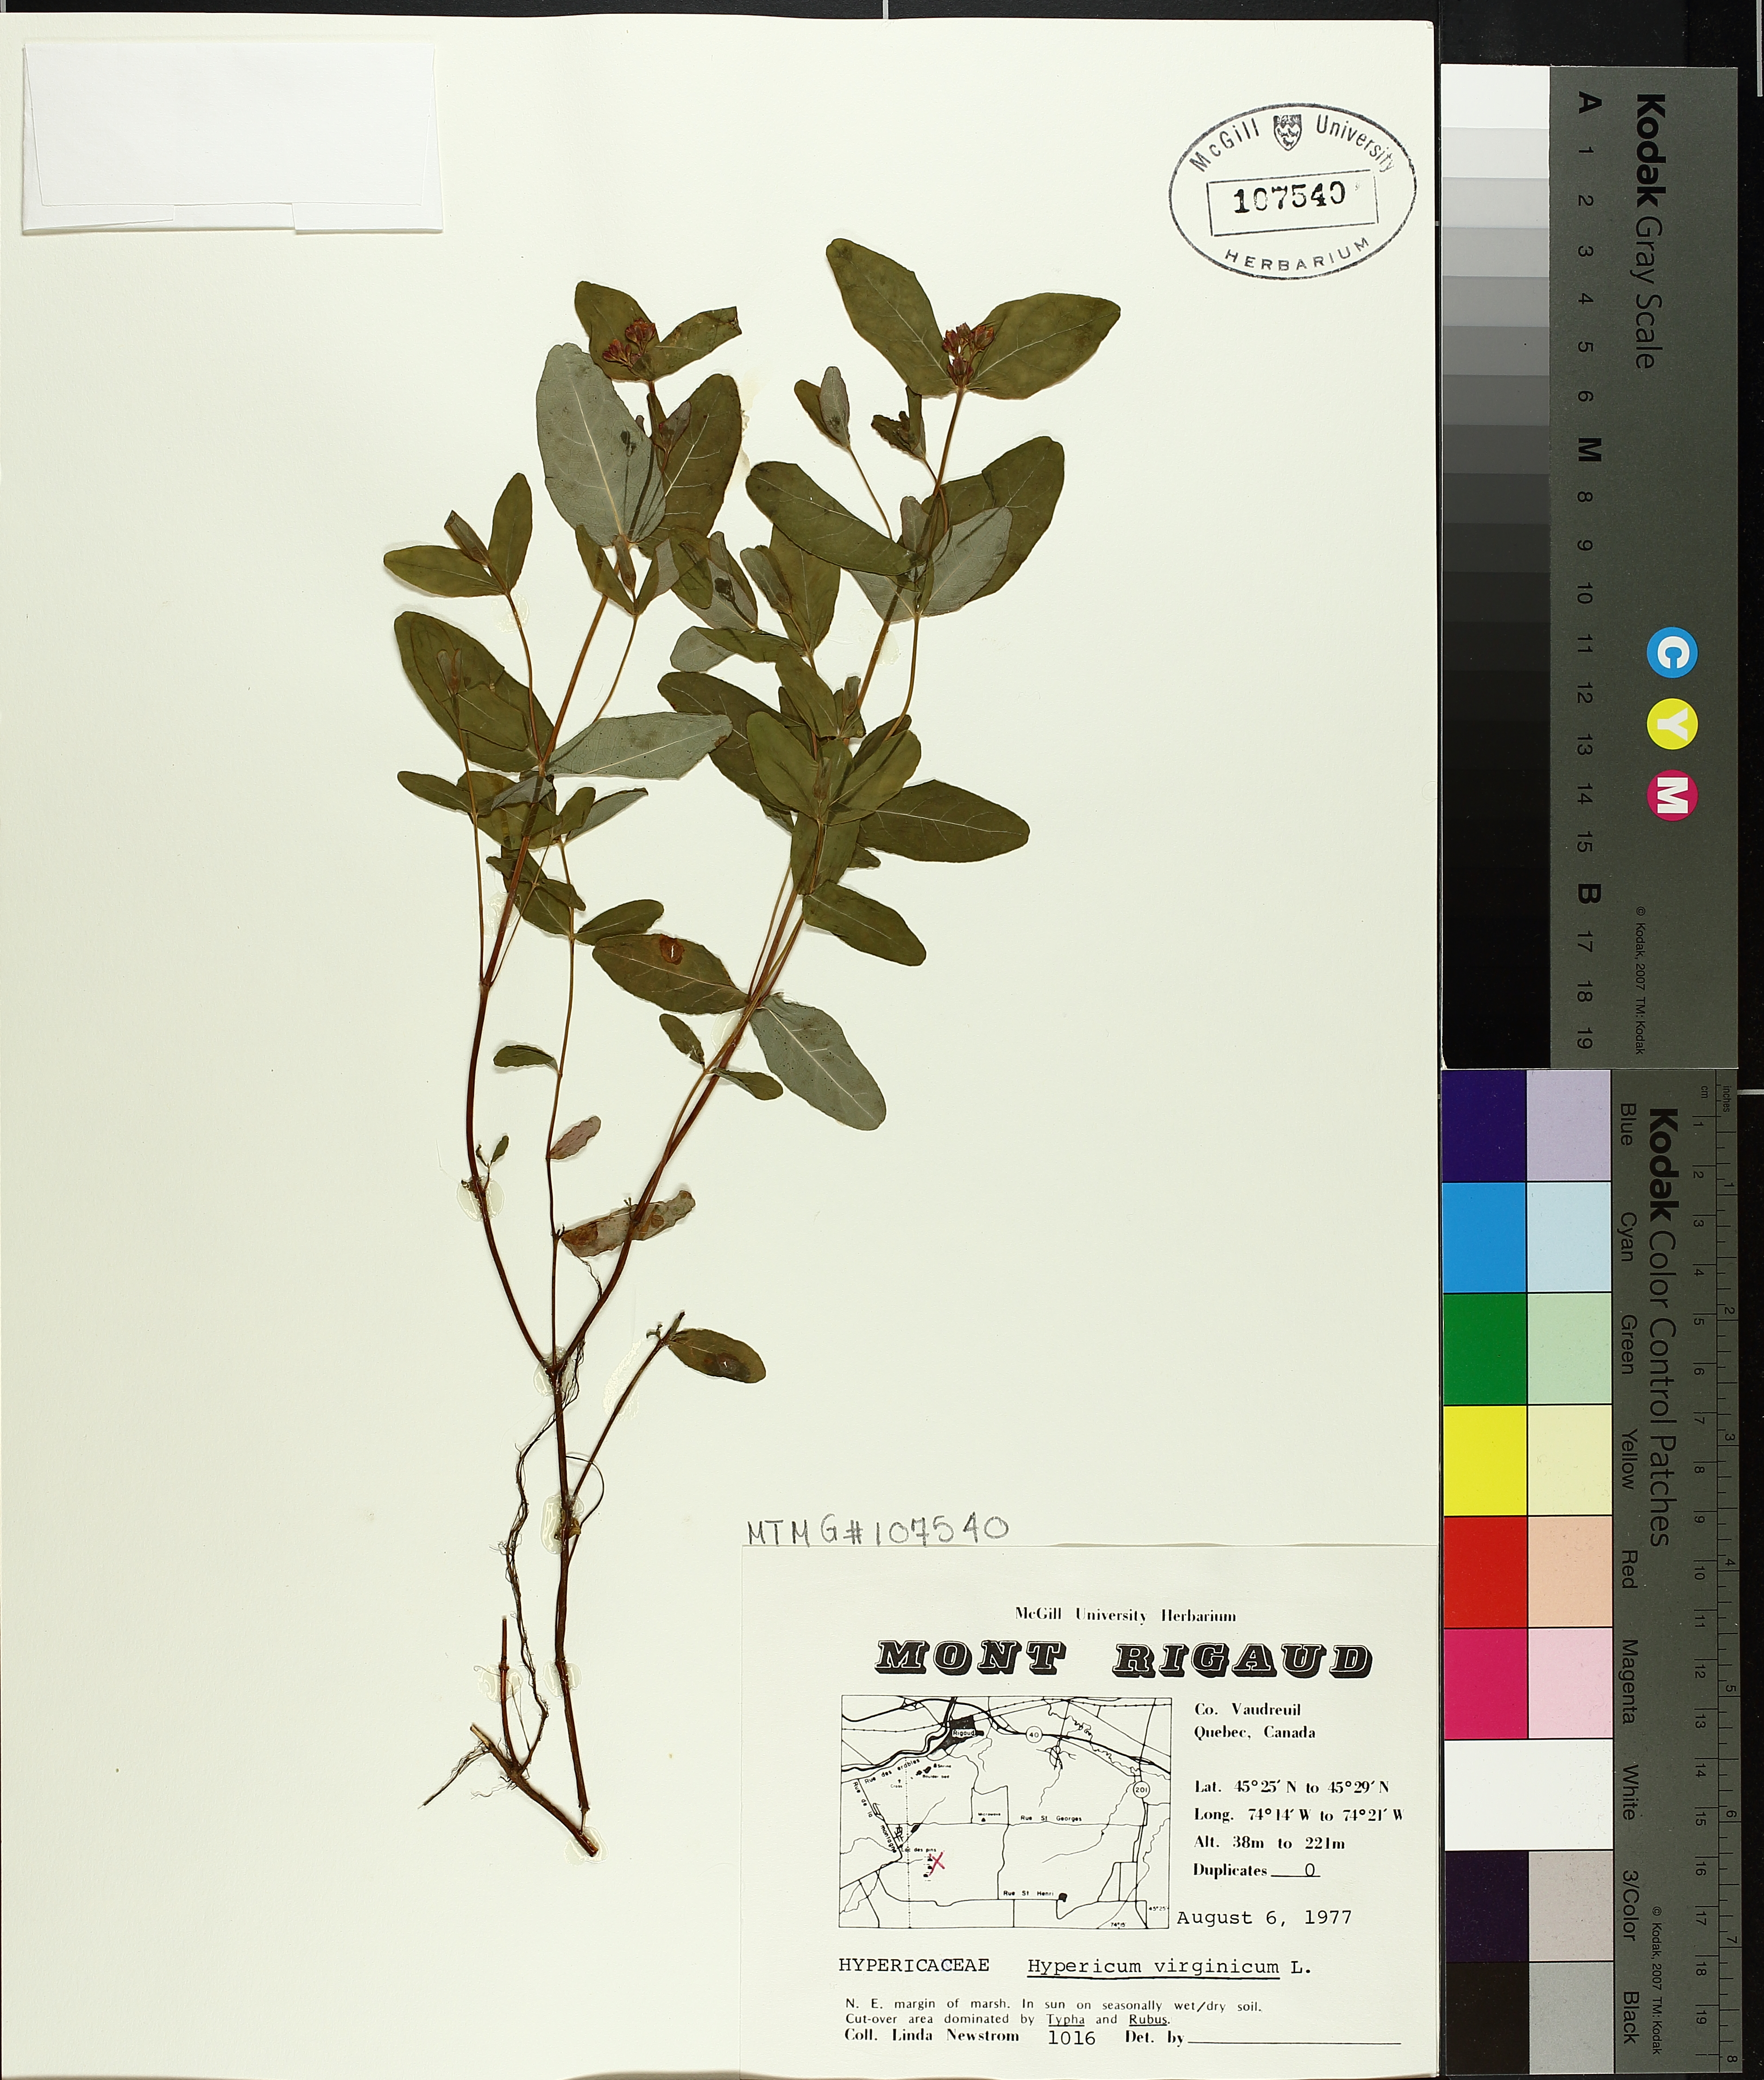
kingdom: Plantae
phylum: Tracheophyta
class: Magnoliopsida
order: Malpighiales
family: Hypericaceae
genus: Triadenum
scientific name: Triadenum virginicum
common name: Marsh st. john's-wort
